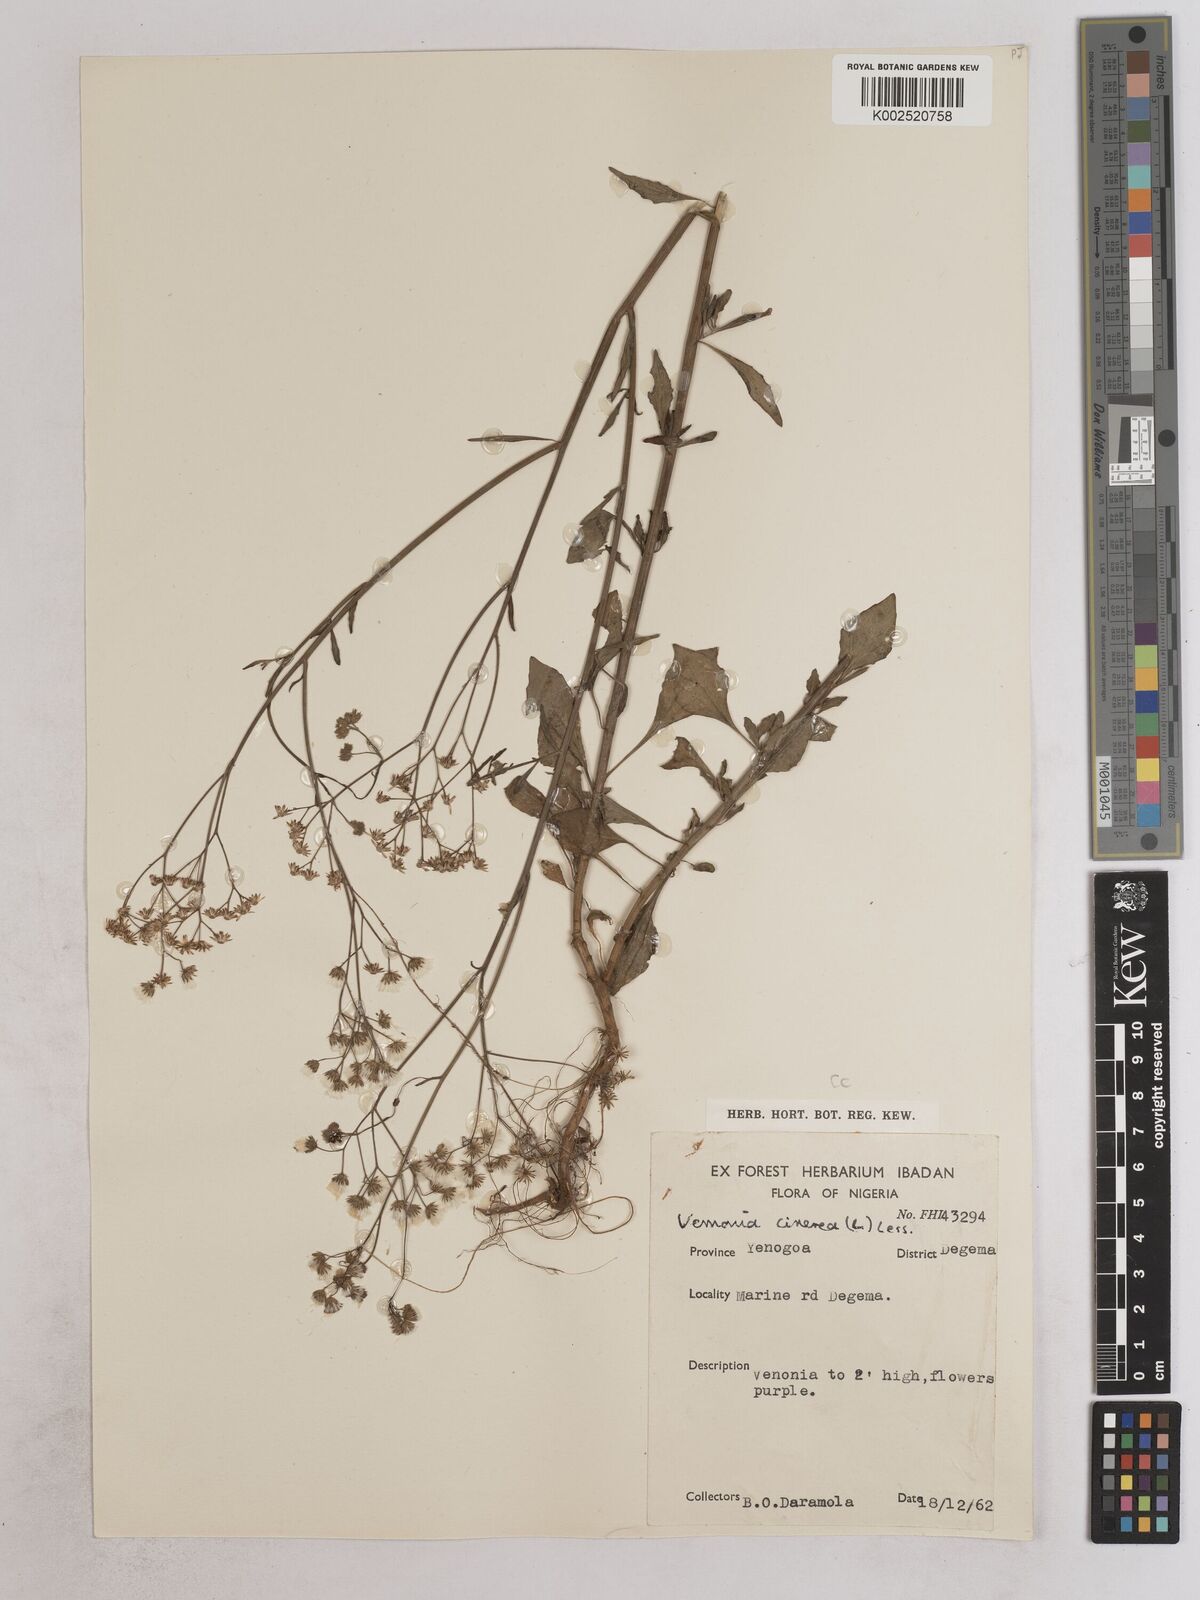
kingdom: Plantae
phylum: Tracheophyta
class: Magnoliopsida
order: Asterales
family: Asteraceae
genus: Cyanthillium
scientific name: Cyanthillium cinereum
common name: Little ironweed
